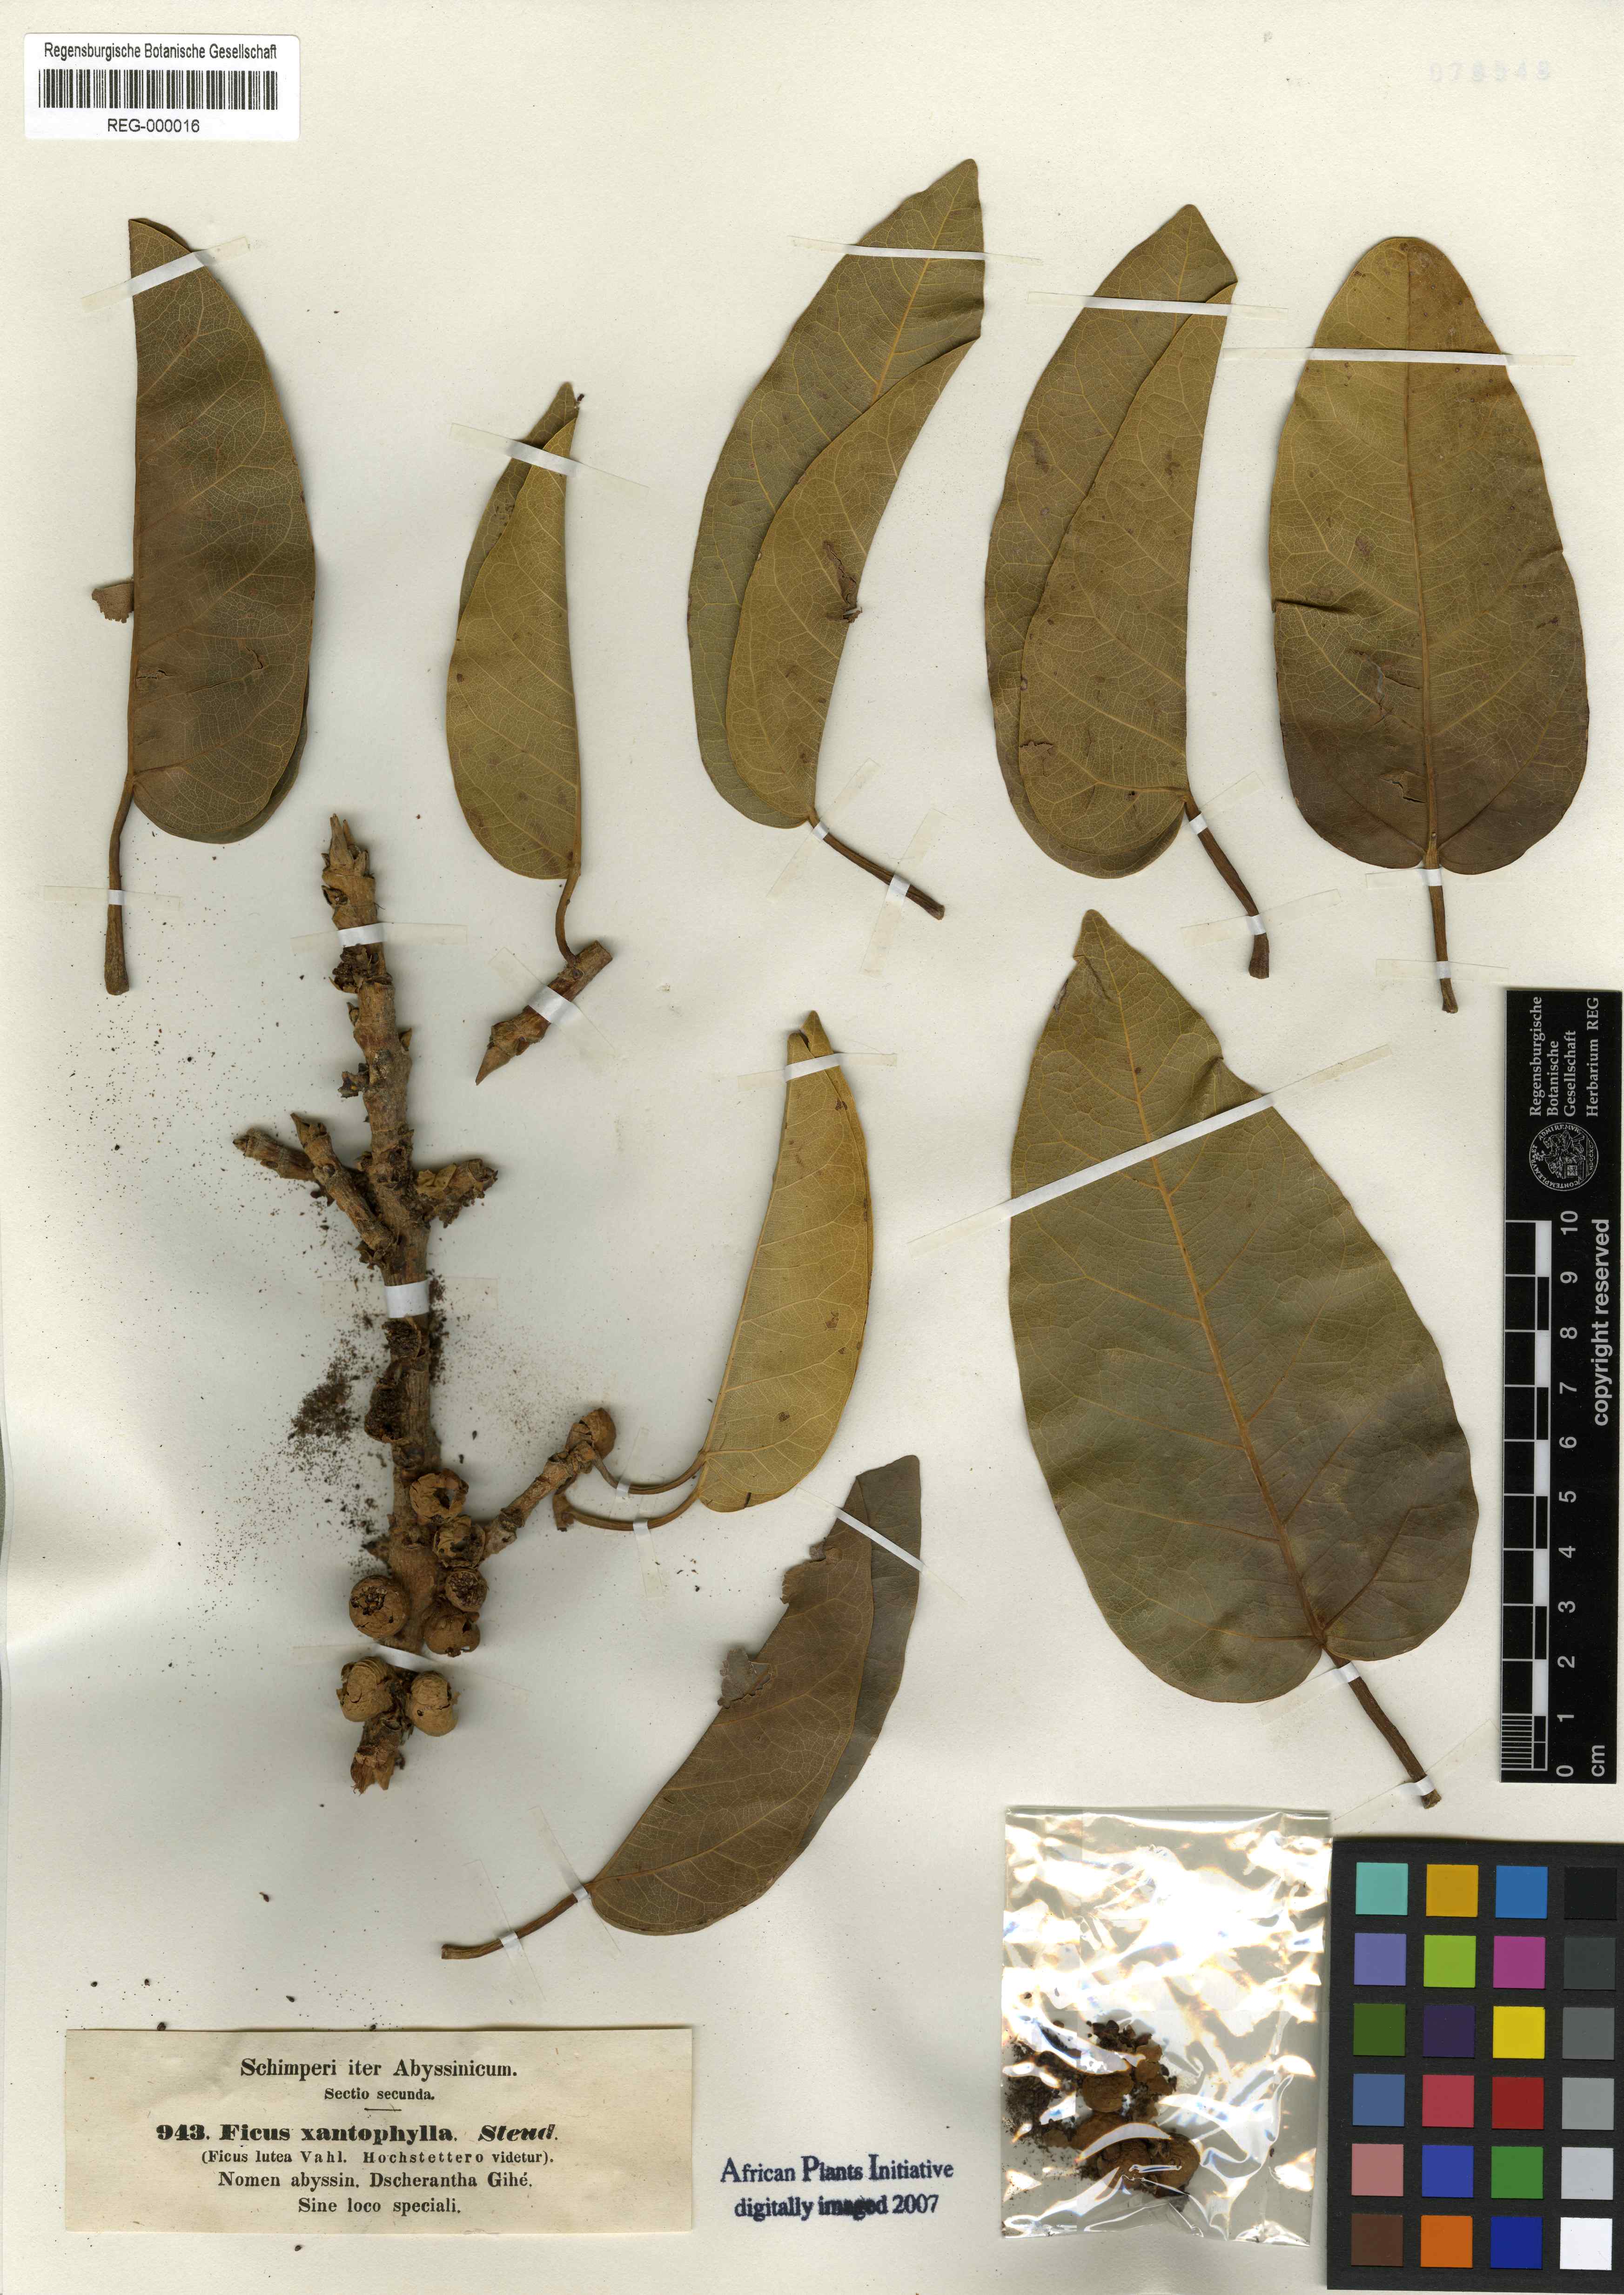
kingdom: Plantae
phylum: Tracheophyta
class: Magnoliopsida
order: Rosales
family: Moraceae
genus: Ficus
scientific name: Ficus ingens
